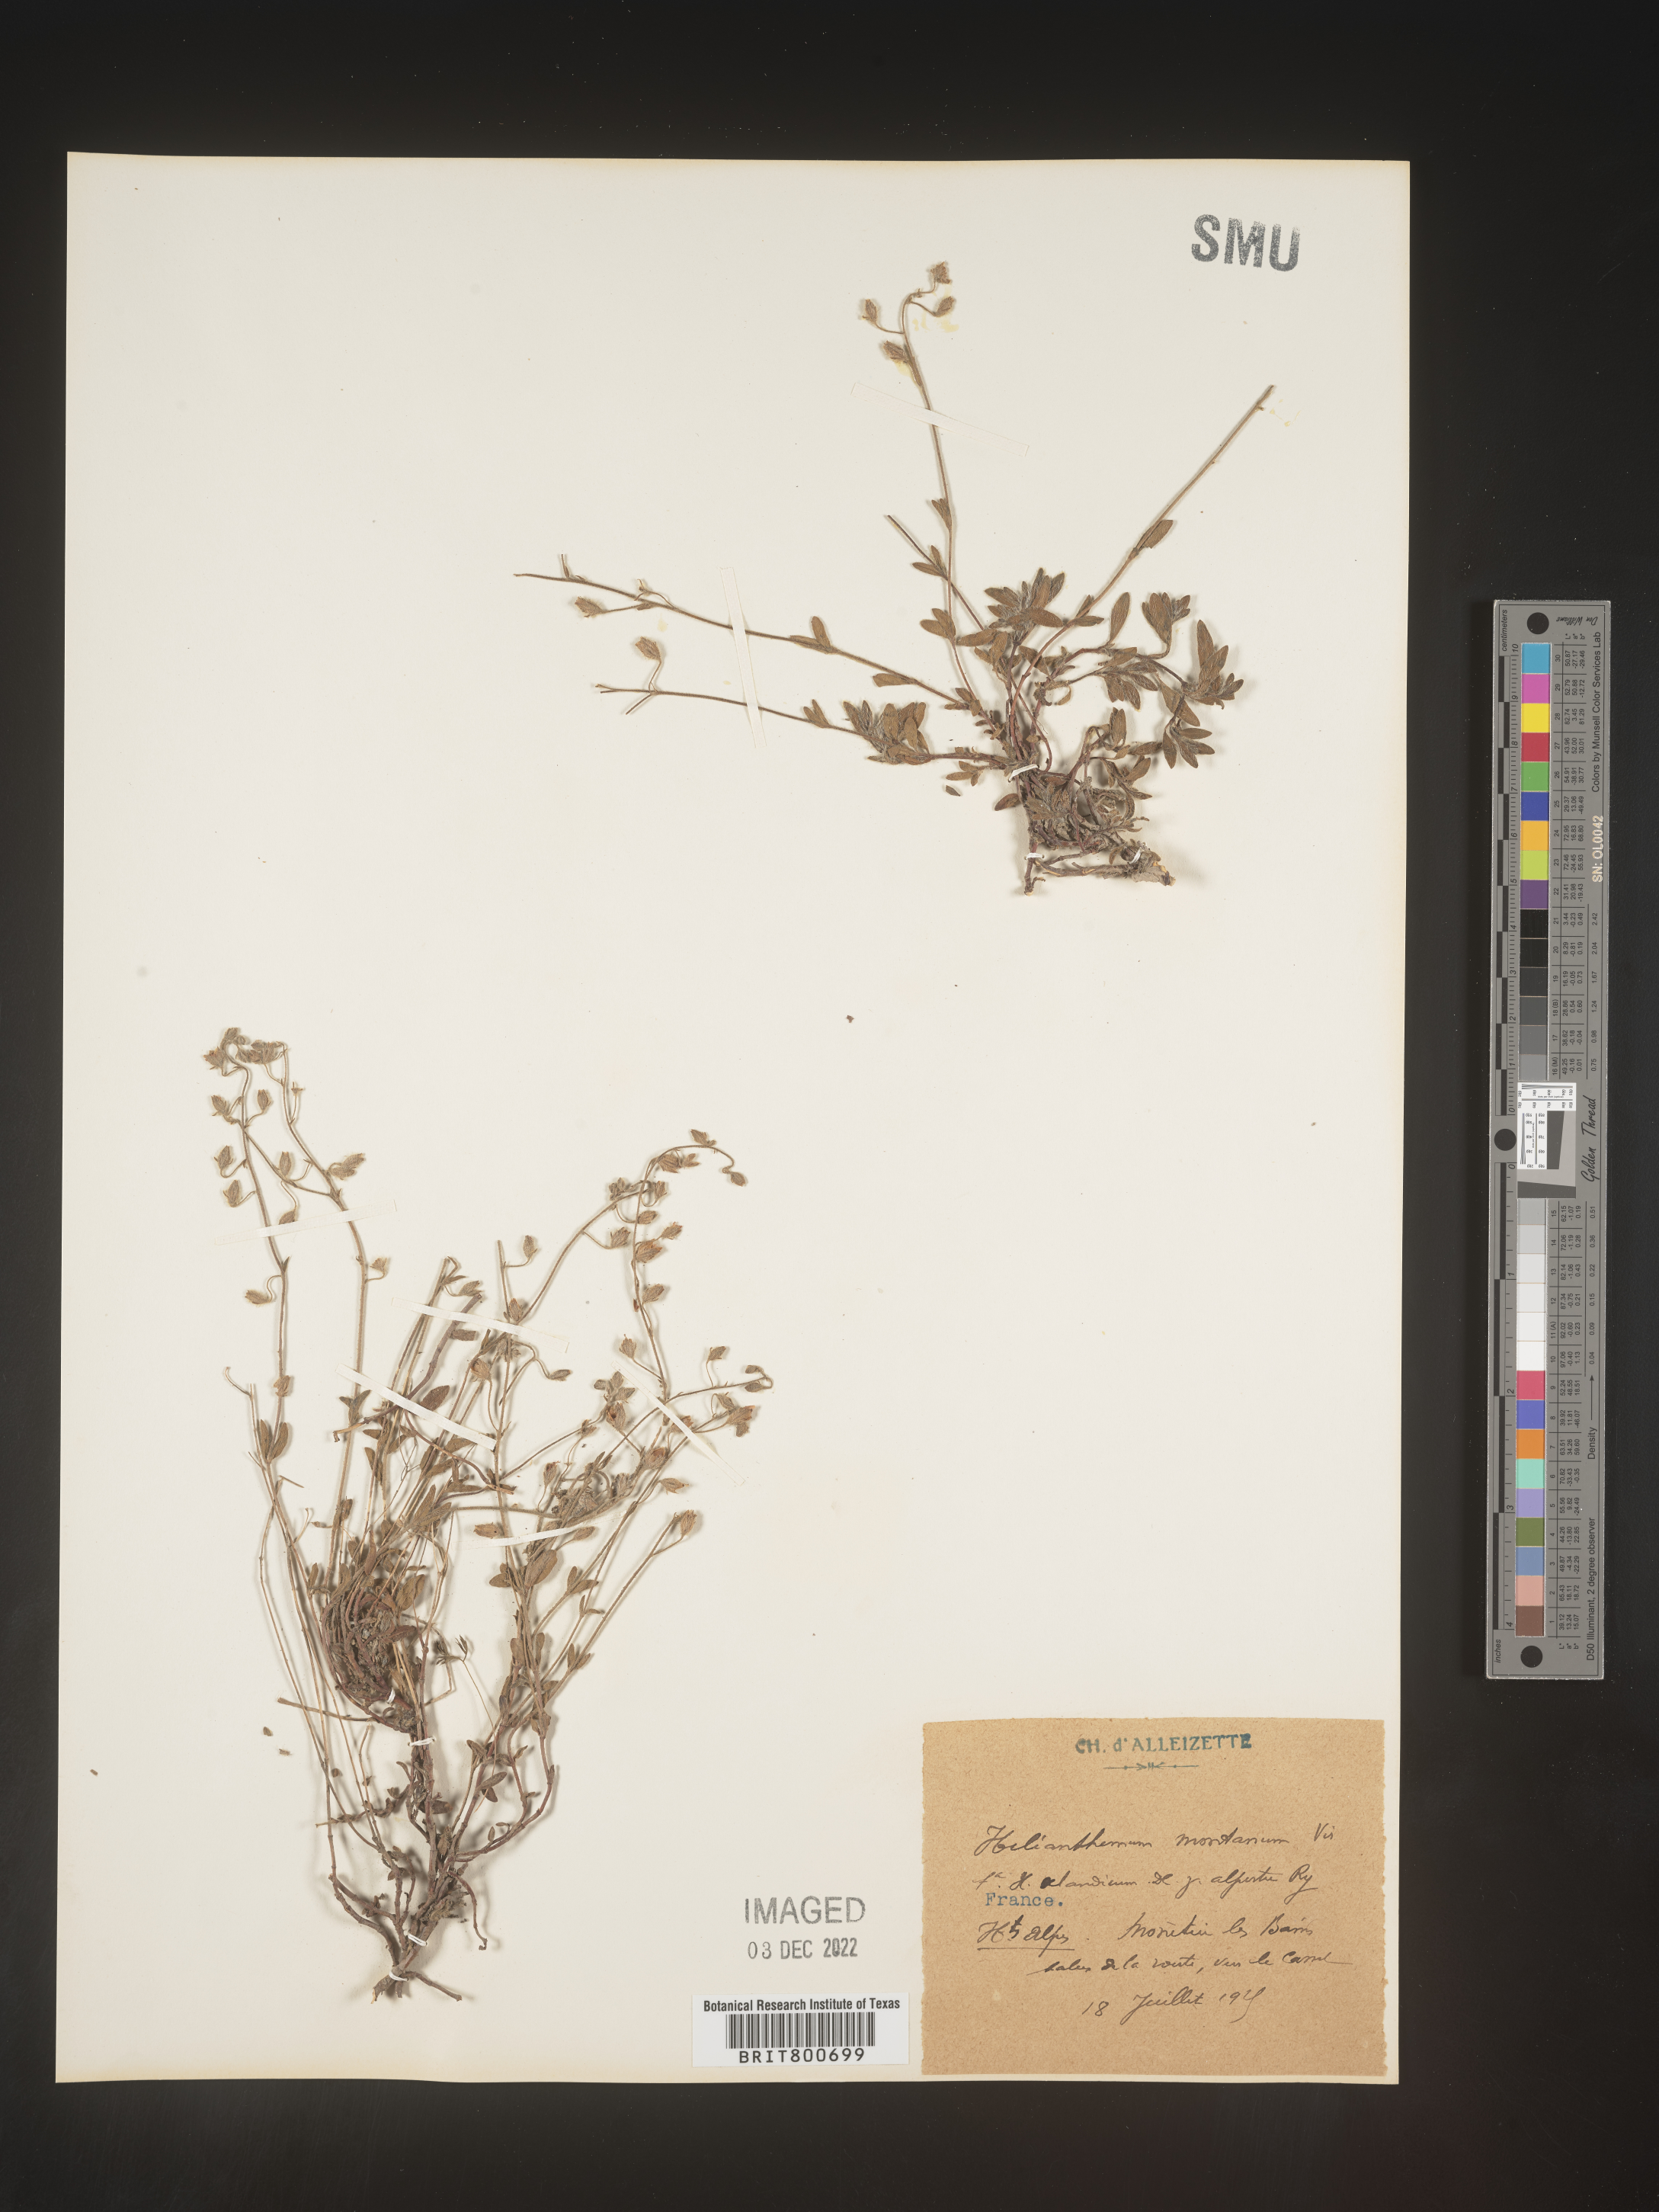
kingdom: Plantae
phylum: Tracheophyta
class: Magnoliopsida
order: Malvales
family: Cistaceae
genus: Helianthemum
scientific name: Helianthemum
